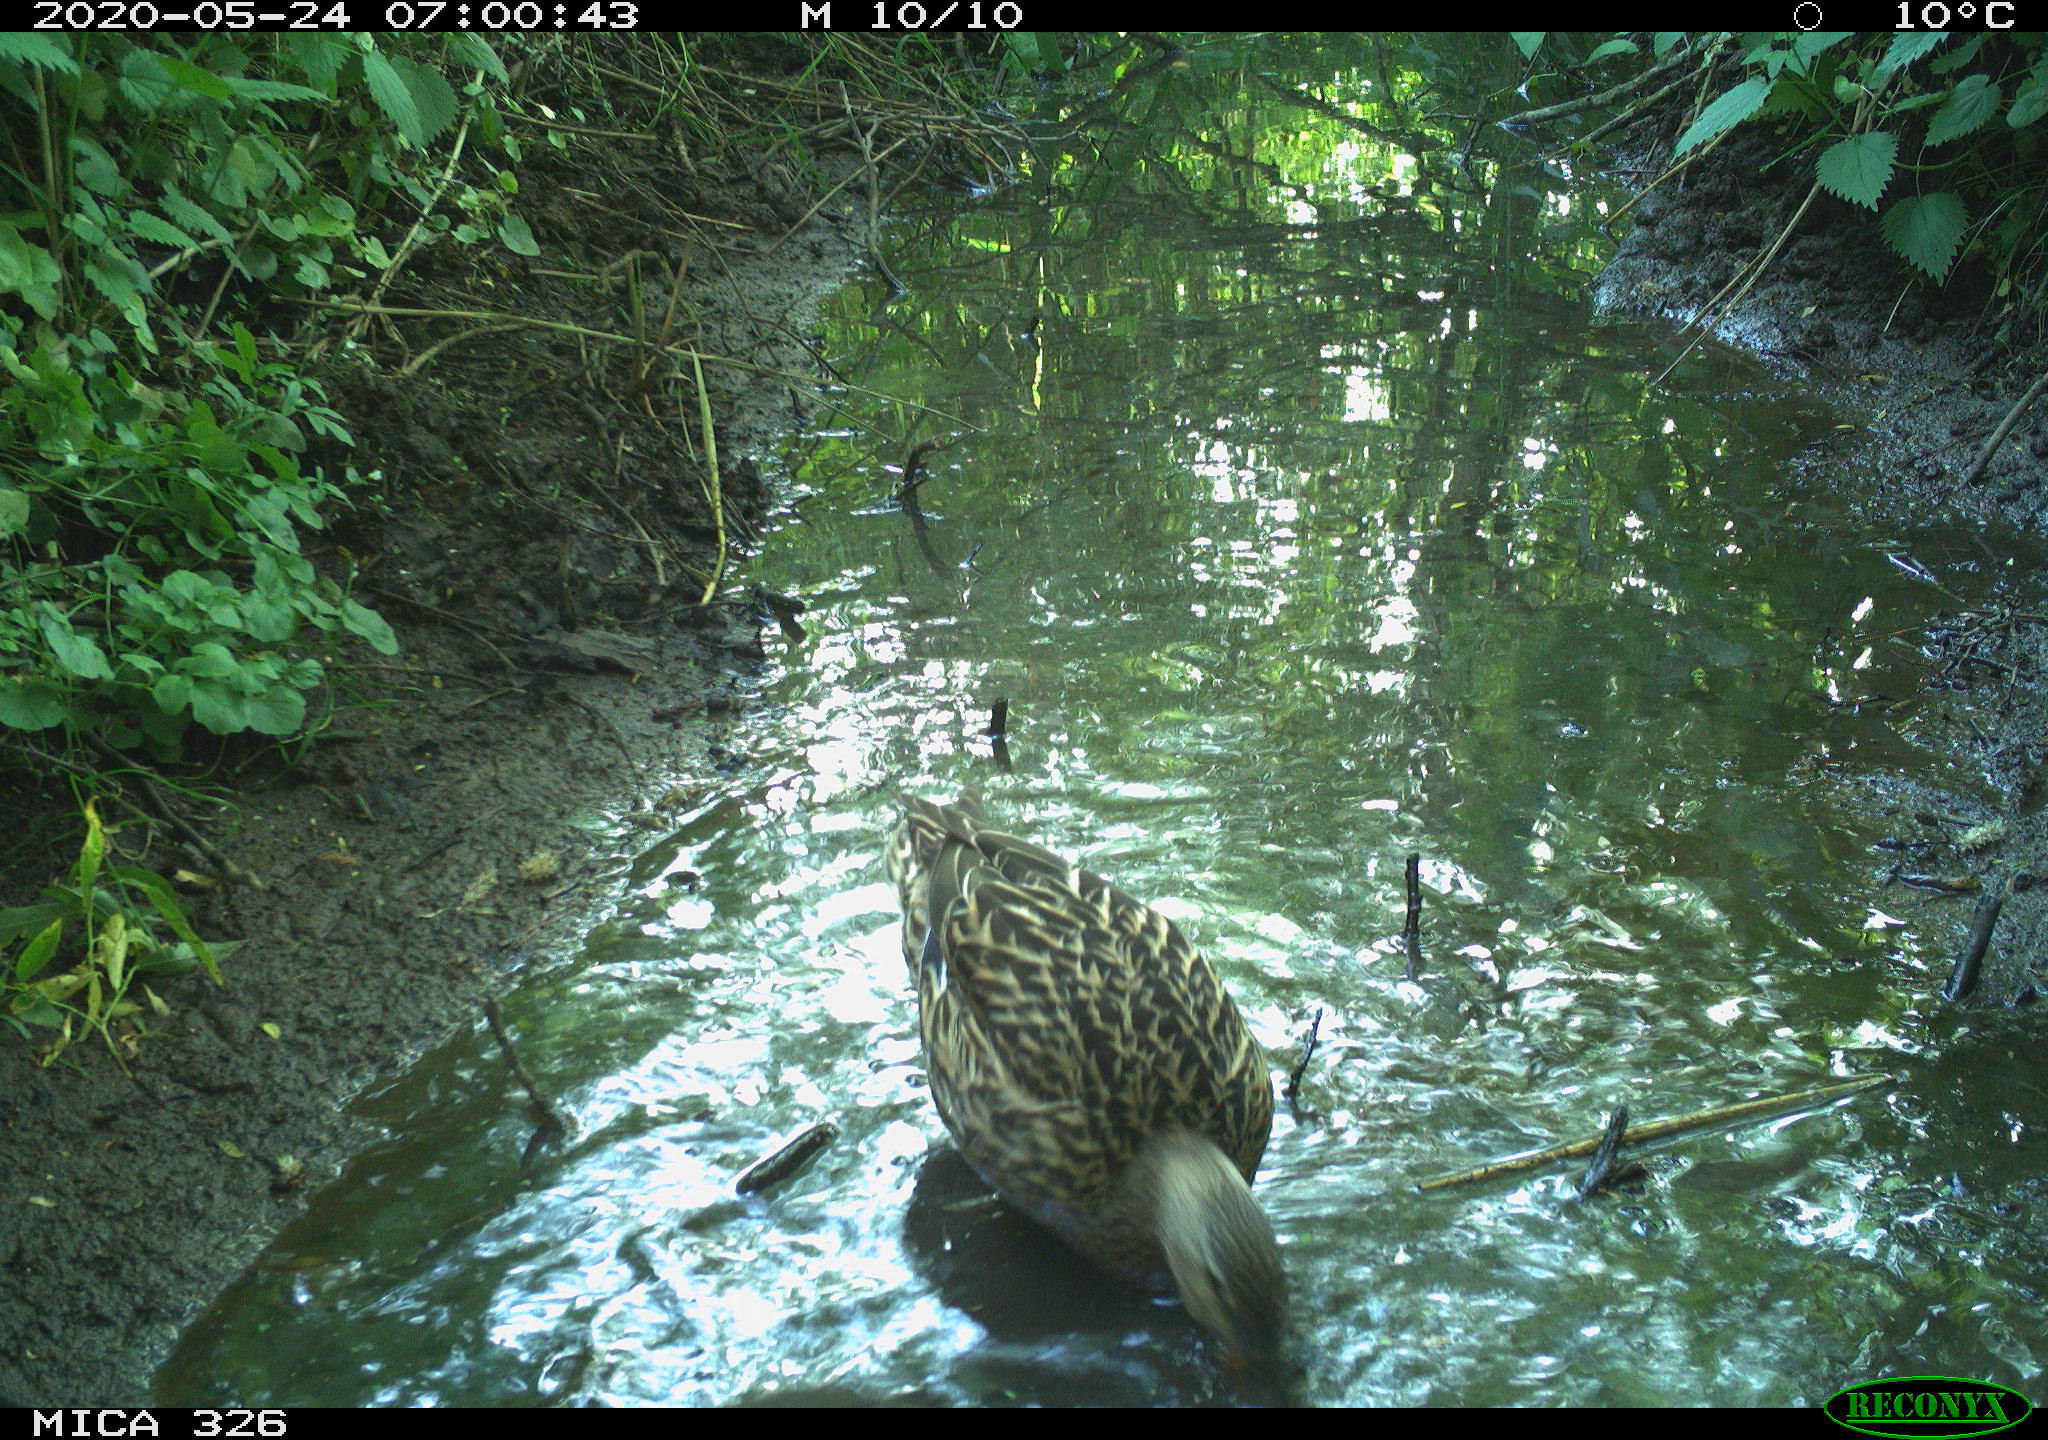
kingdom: Animalia
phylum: Chordata
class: Aves
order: Anseriformes
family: Anatidae
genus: Anas
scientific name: Anas platyrhynchos
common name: Mallard
